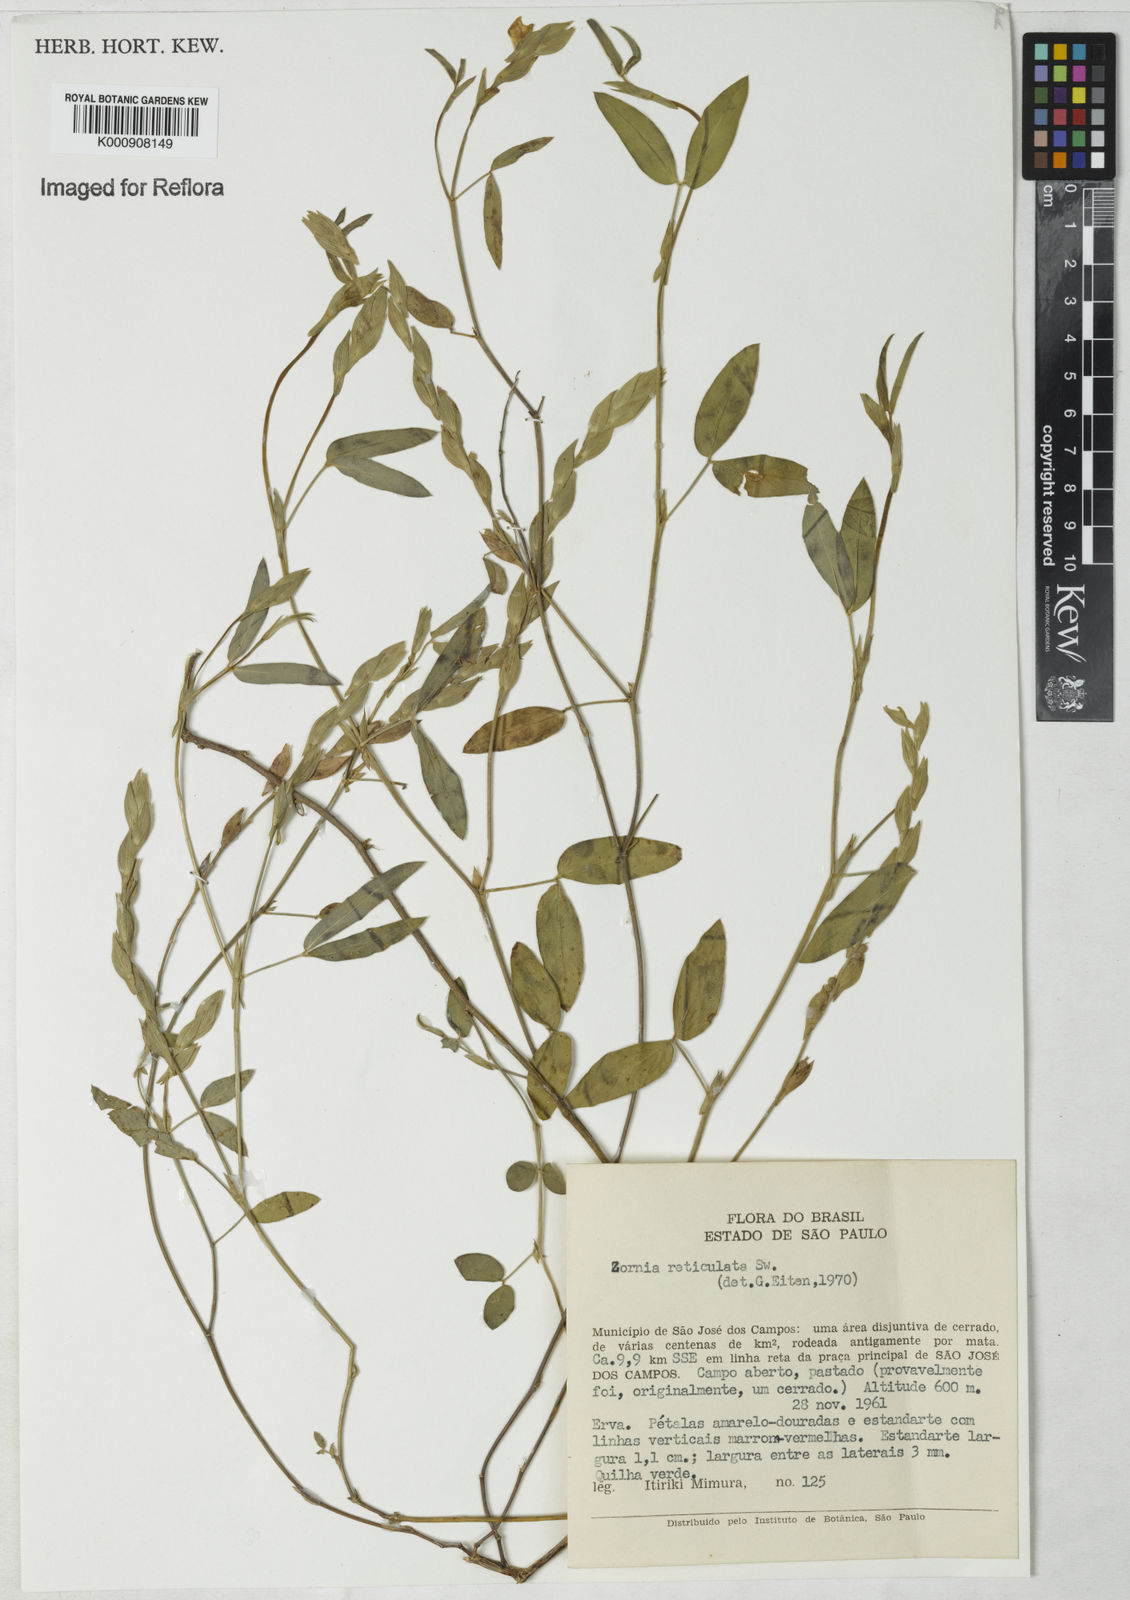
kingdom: Plantae
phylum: Tracheophyta
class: Magnoliopsida
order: Fabales
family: Fabaceae
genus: Zornia
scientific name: Zornia reticulata
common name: Reticulate viperina
